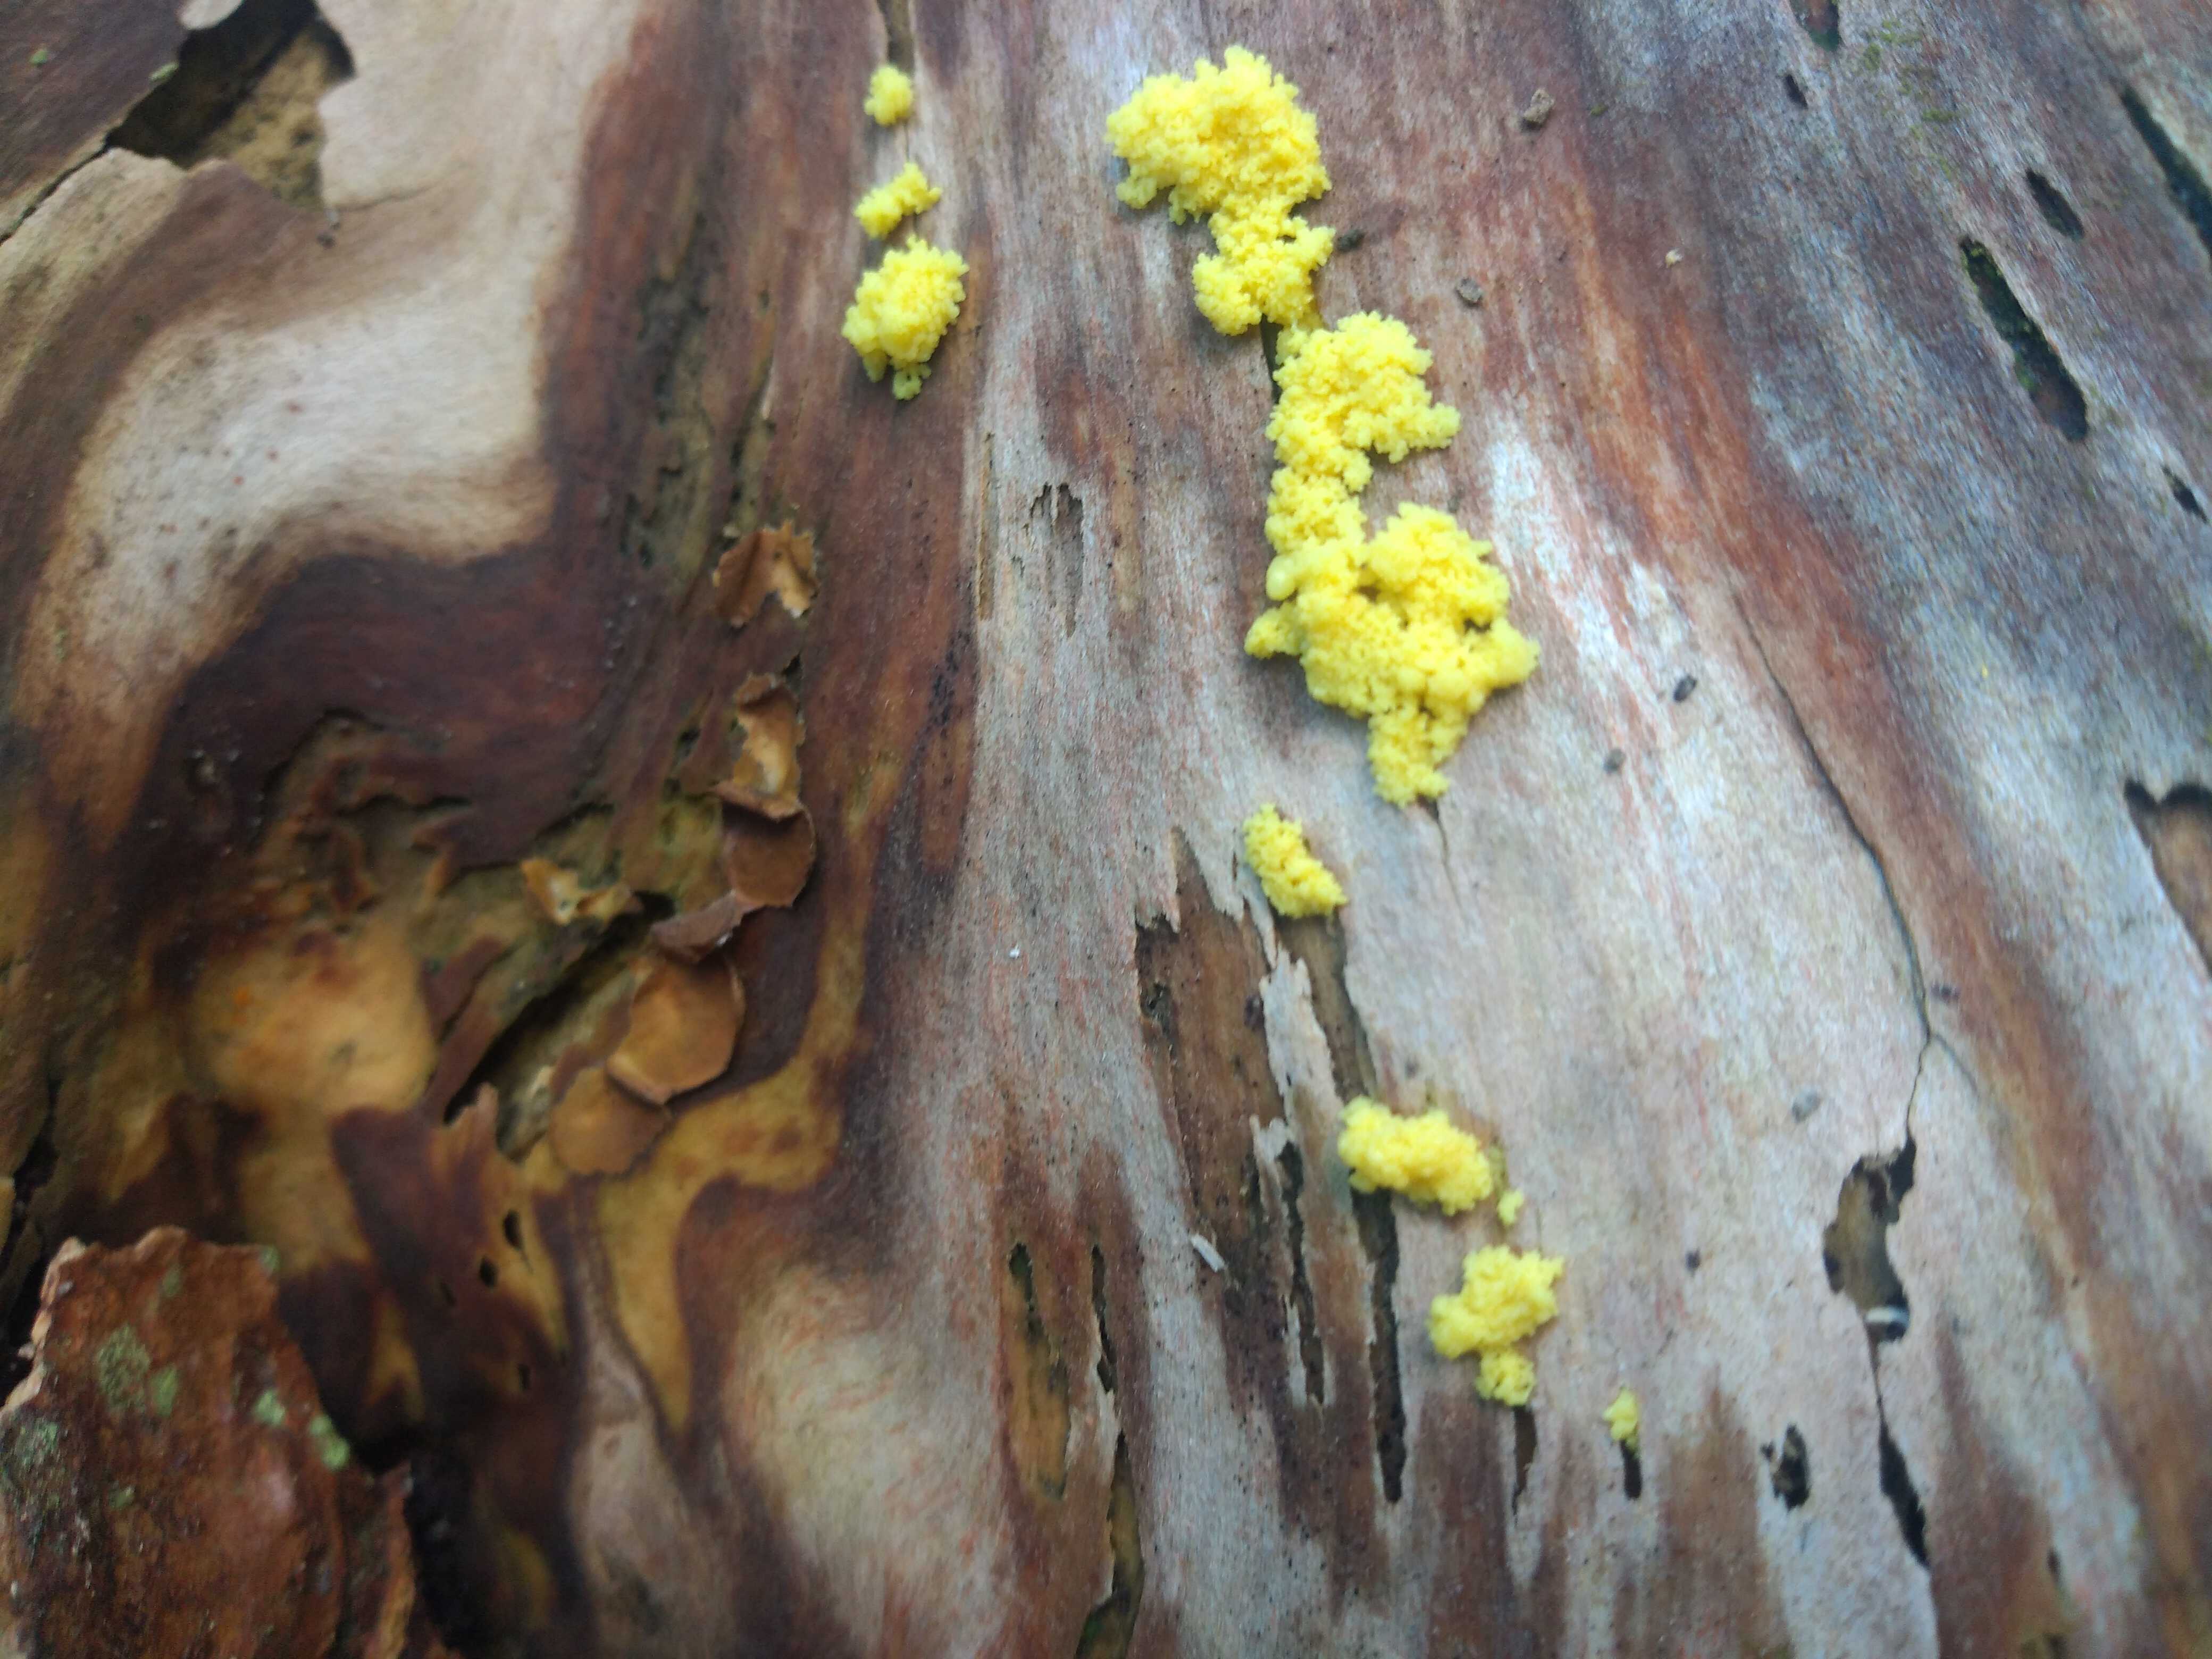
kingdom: Protozoa
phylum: Mycetozoa
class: Myxomycetes
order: Physarales
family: Physaraceae
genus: Fuligo
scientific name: Fuligo septica
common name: gul troldsmør
